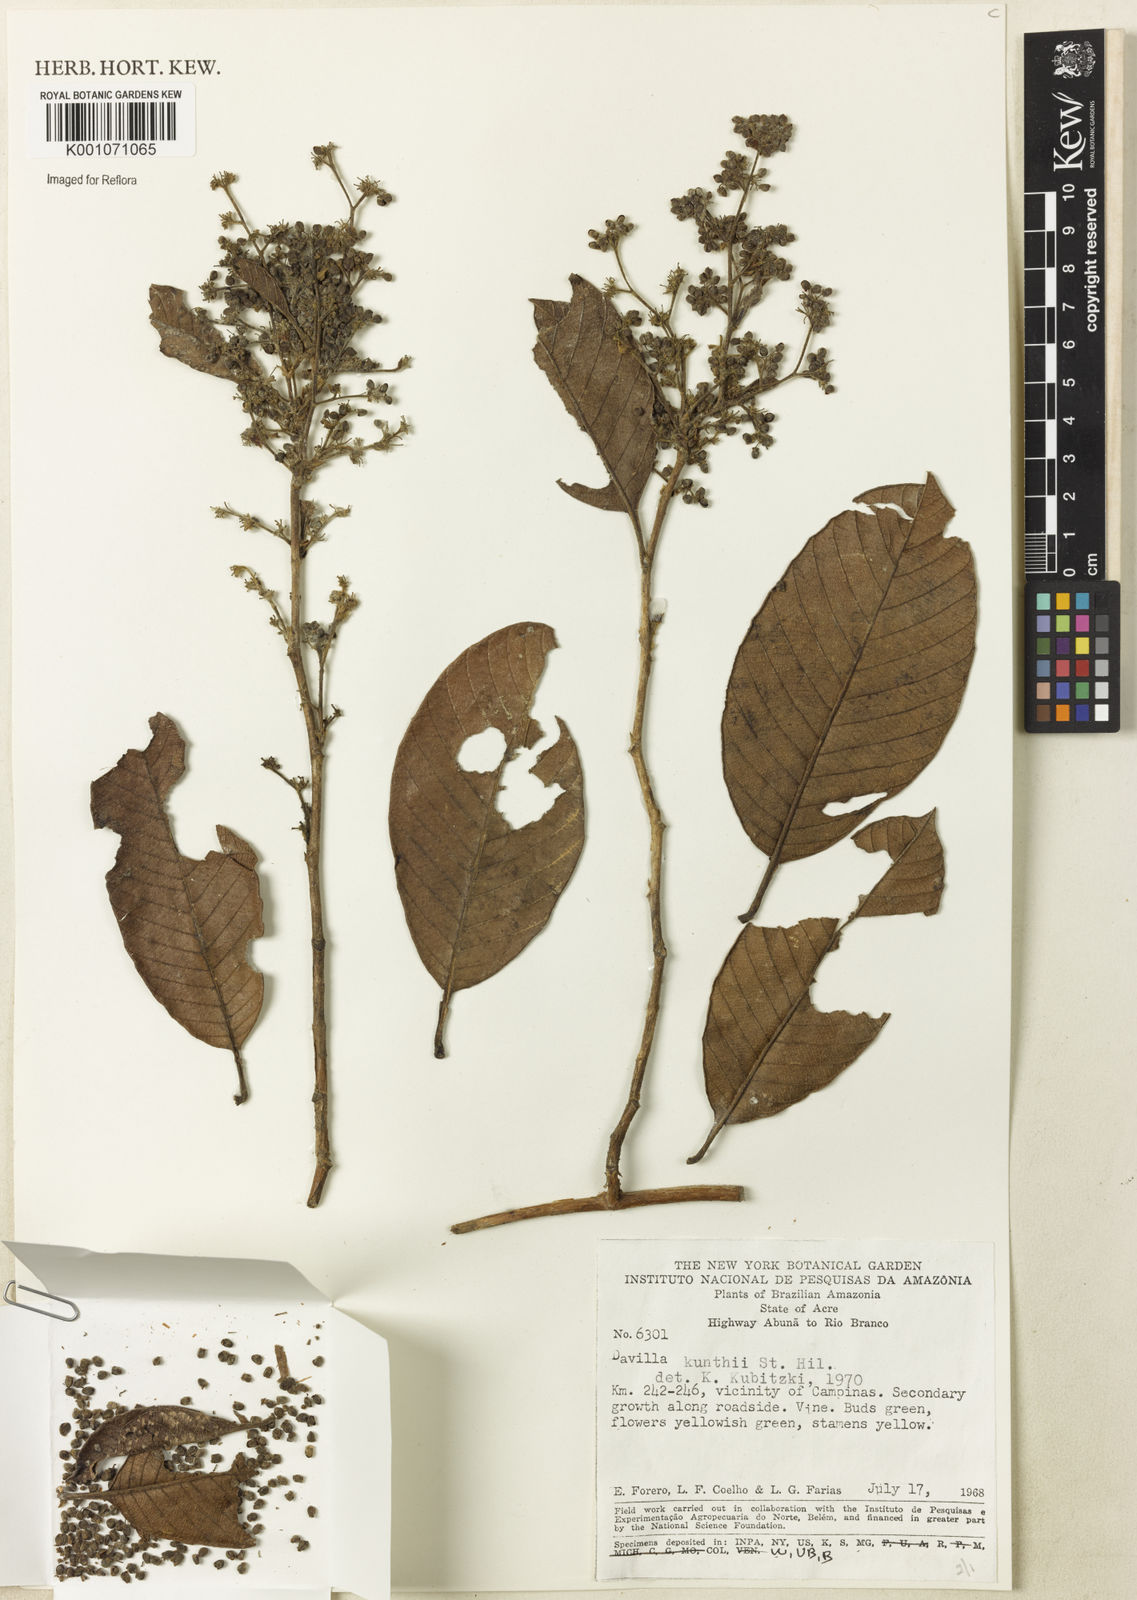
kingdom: Plantae
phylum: Tracheophyta
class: Magnoliopsida
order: Dilleniales
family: Dilleniaceae
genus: Davilla
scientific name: Davilla kunthii
